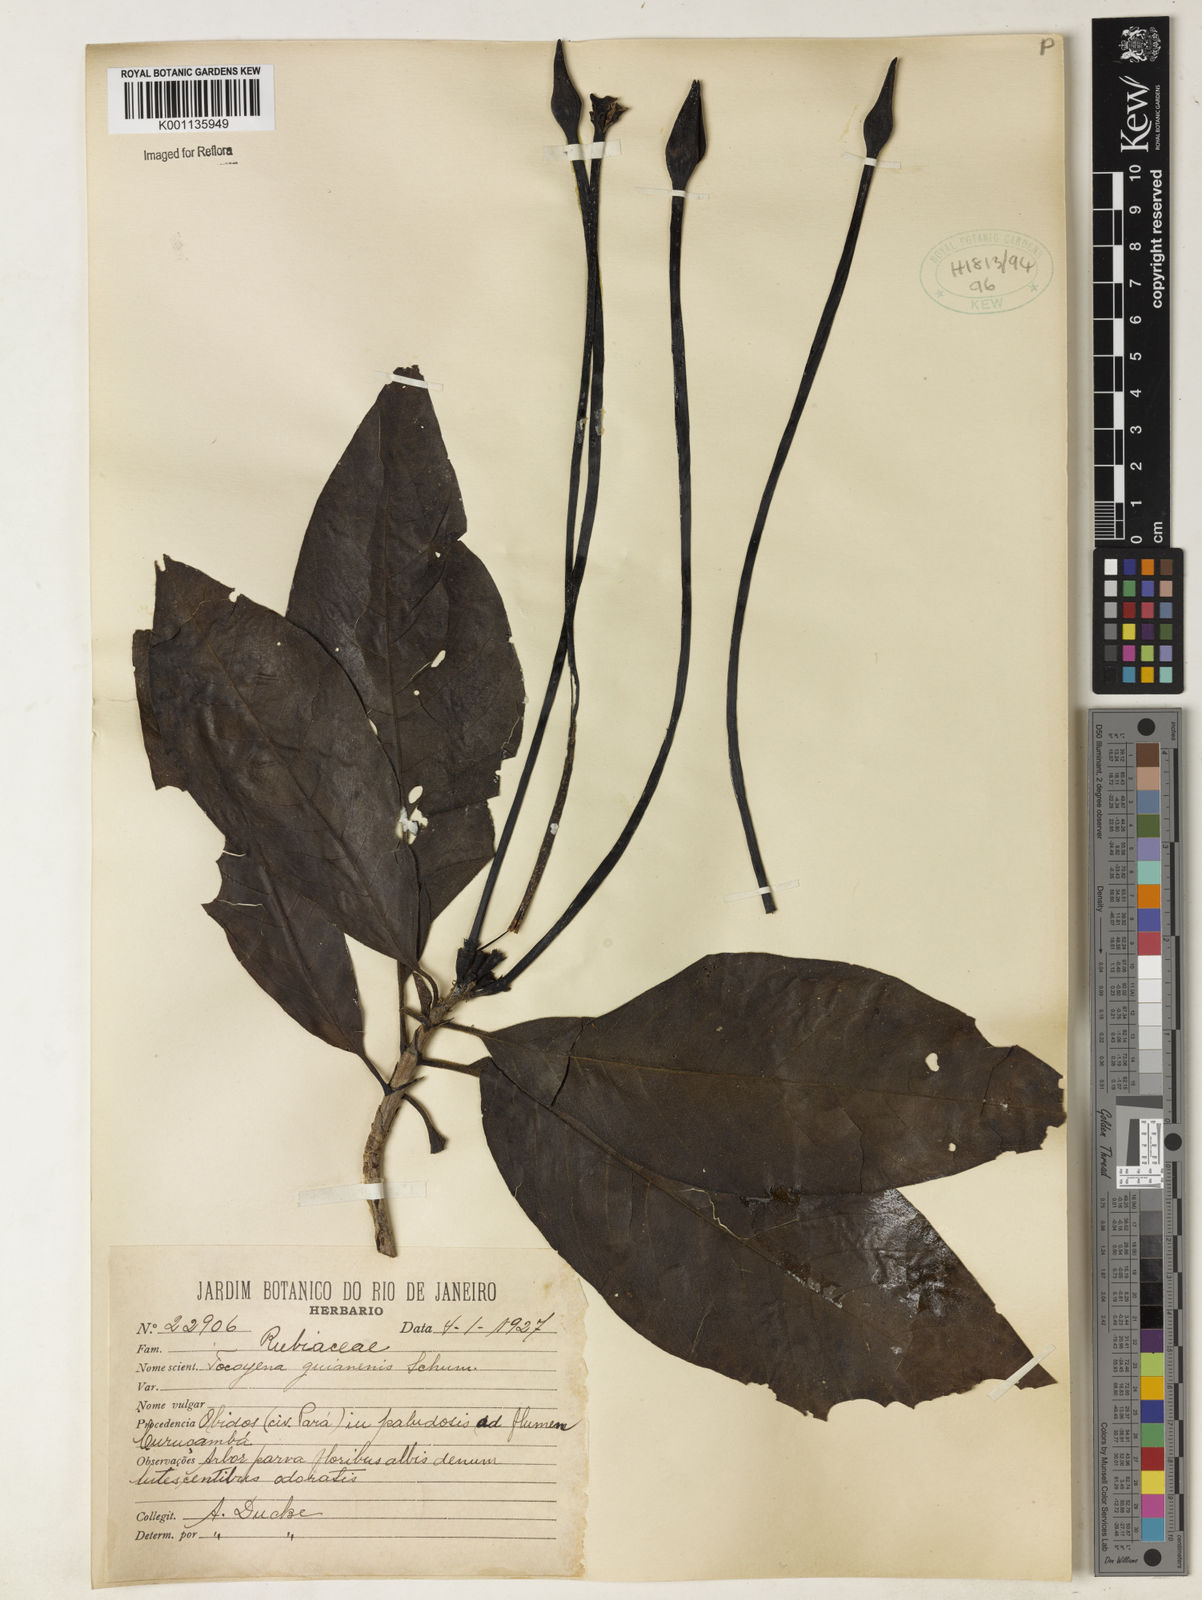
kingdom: Plantae
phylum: Tracheophyta
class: Magnoliopsida
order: Gentianales
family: Rubiaceae
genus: Tocoyena
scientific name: Tocoyena guianensis
